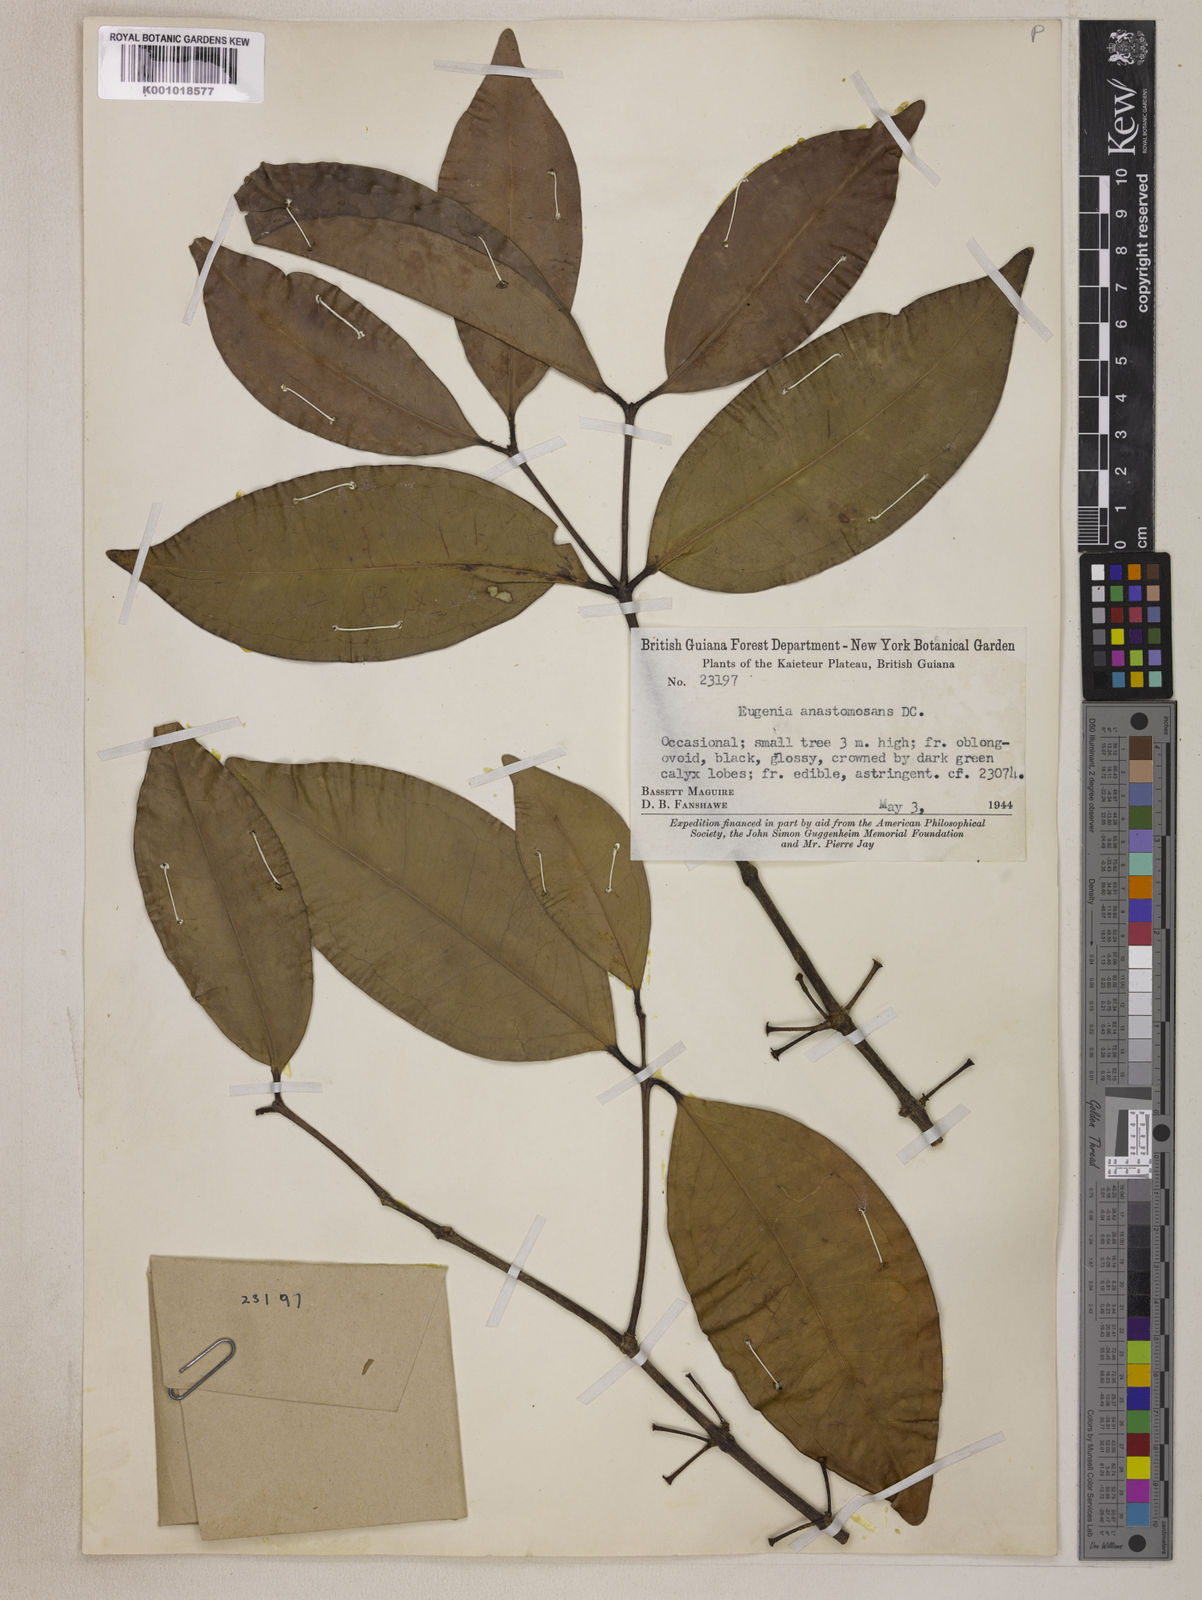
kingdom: Plantae
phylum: Tracheophyta
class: Magnoliopsida
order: Myrtales
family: Myrtaceae
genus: Eugenia
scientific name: Eugenia anastomosans
